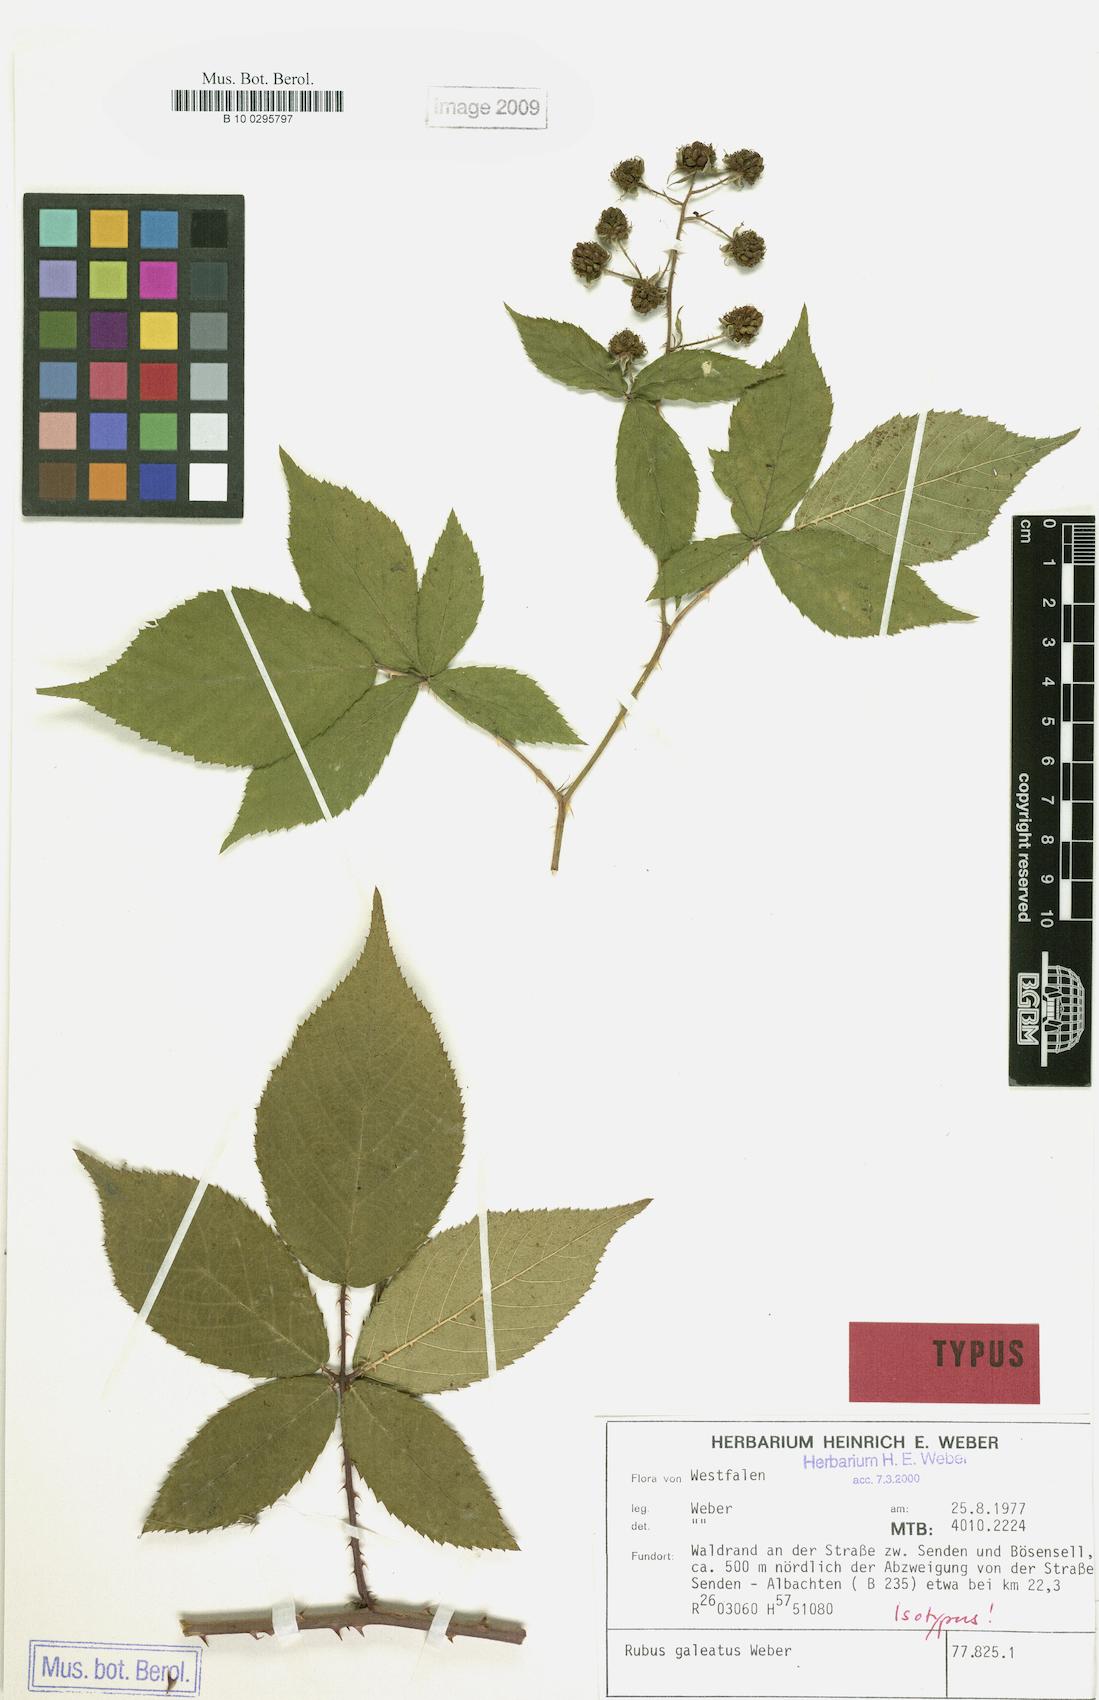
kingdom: Plantae
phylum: Tracheophyta
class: Magnoliopsida
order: Rosales
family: Rosaceae
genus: Rubus
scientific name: Rubus galeatus
